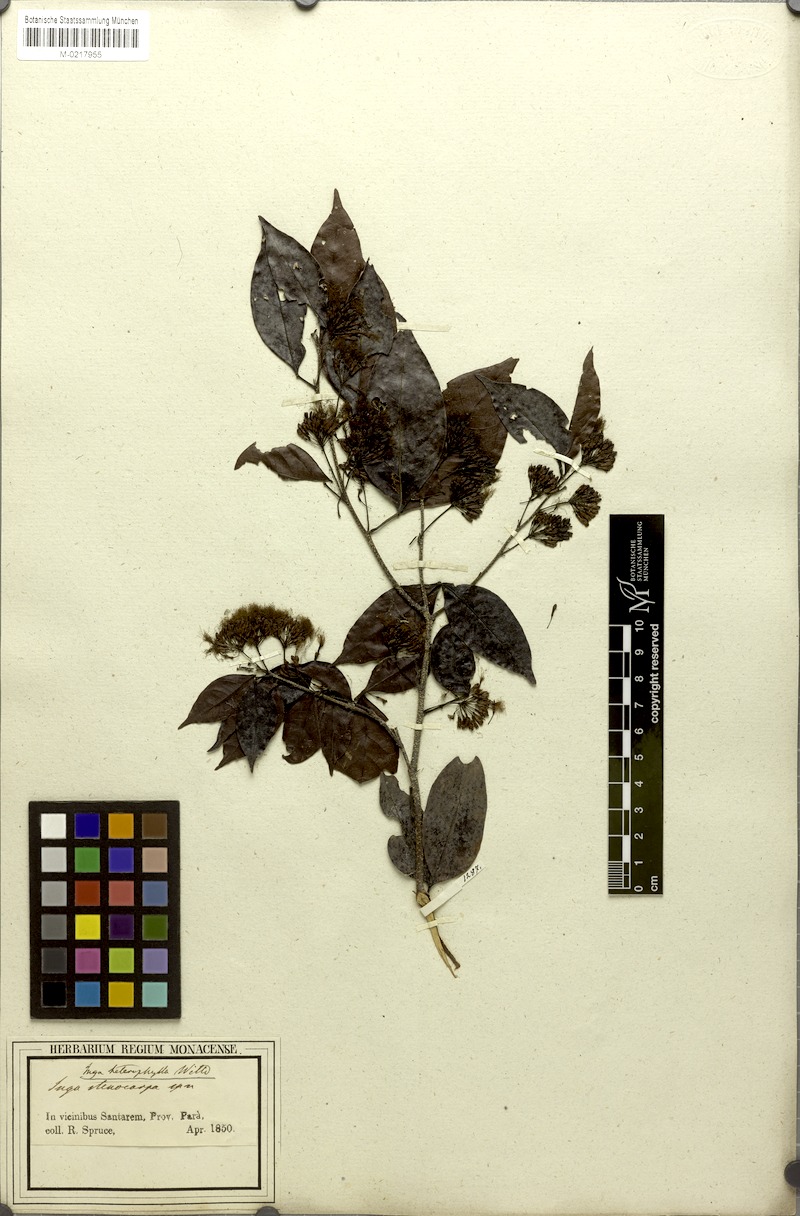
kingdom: Plantae
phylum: Tracheophyta
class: Magnoliopsida
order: Fabales
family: Fabaceae
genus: Inga
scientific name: Inga heterophylla
